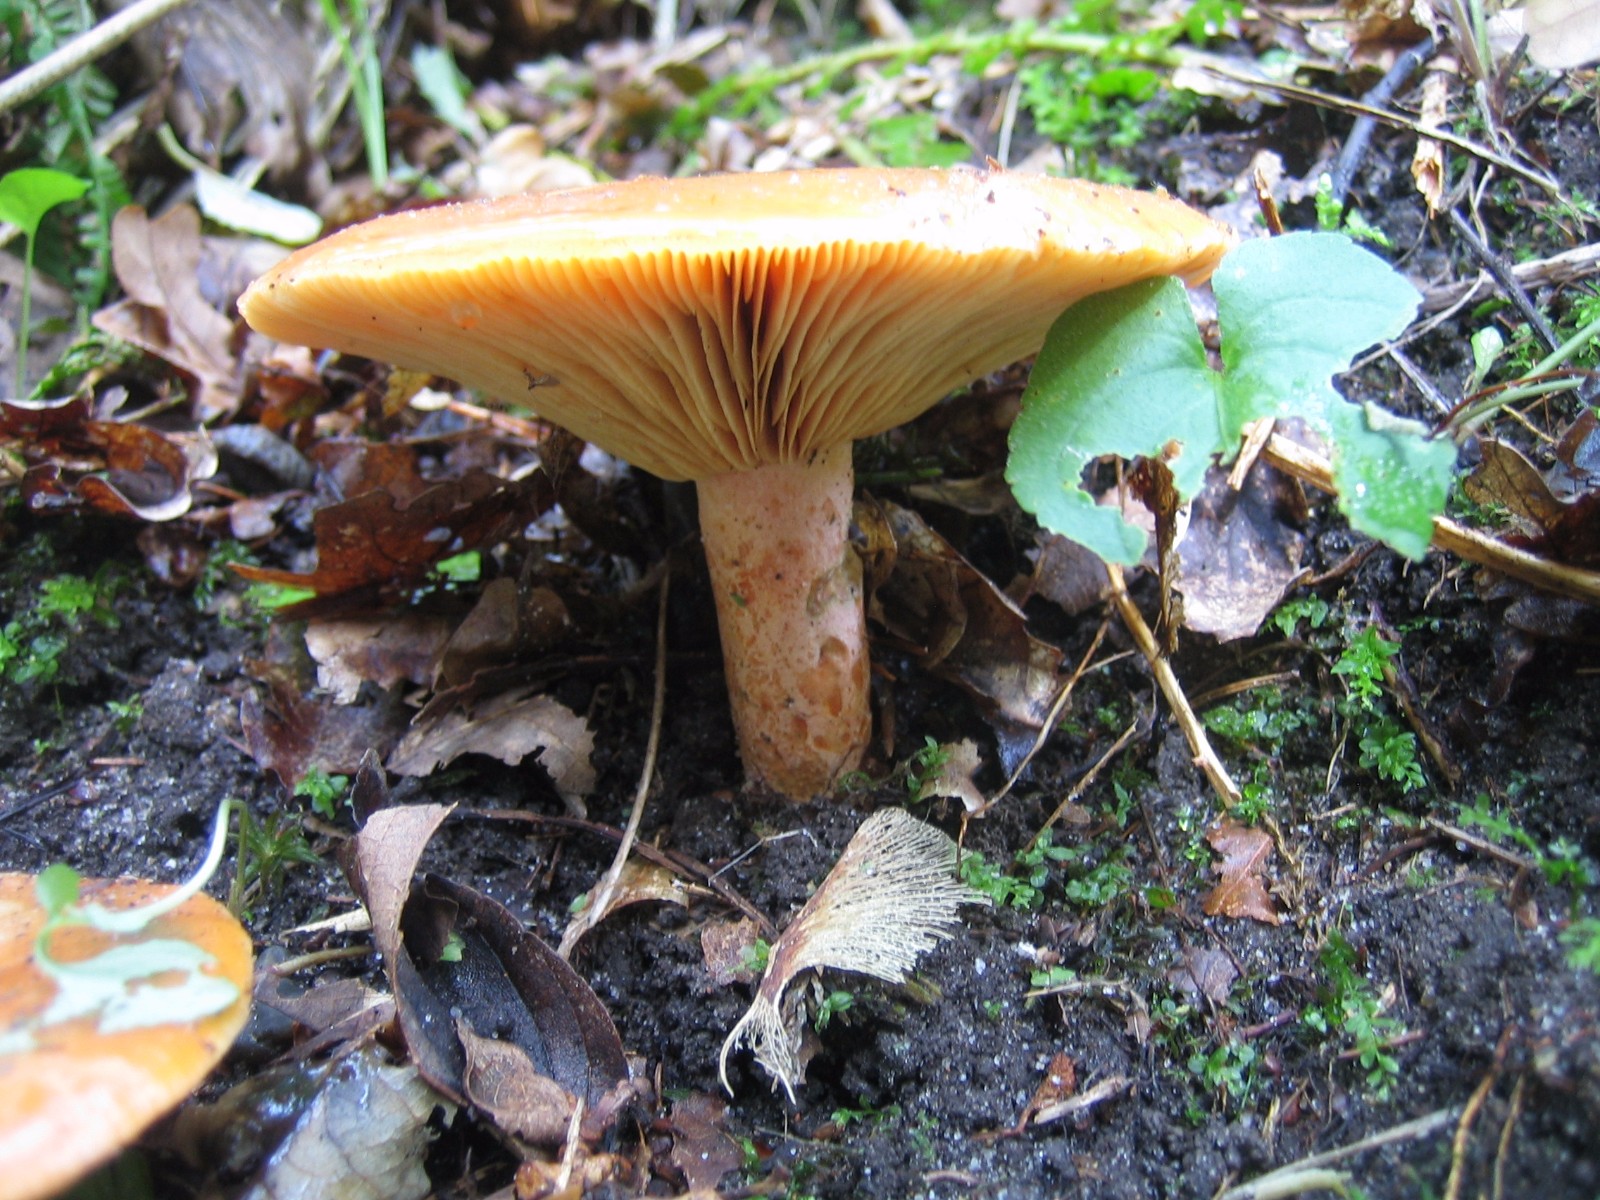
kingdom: Fungi
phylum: Basidiomycota
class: Agaricomycetes
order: Russulales
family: Russulaceae
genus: Lactarius
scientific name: Lactarius deterrimus
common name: gran-mælkehat
